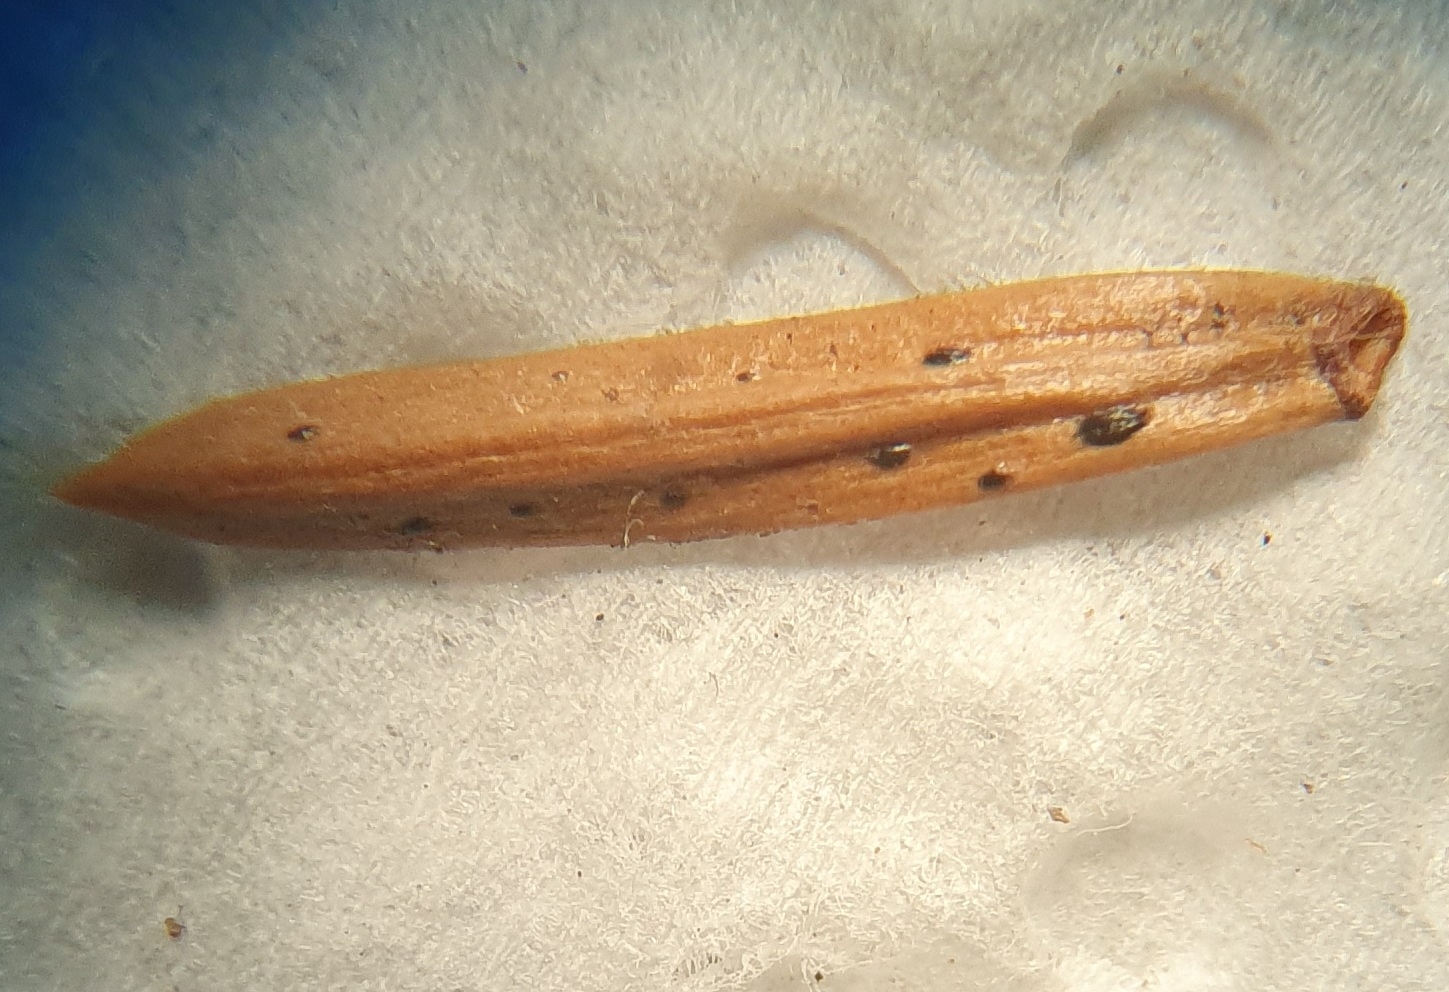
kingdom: Fungi
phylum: Ascomycota
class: Leotiomycetes
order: Rhytismatales
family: Rhytismataceae
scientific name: Rhytismataceae
